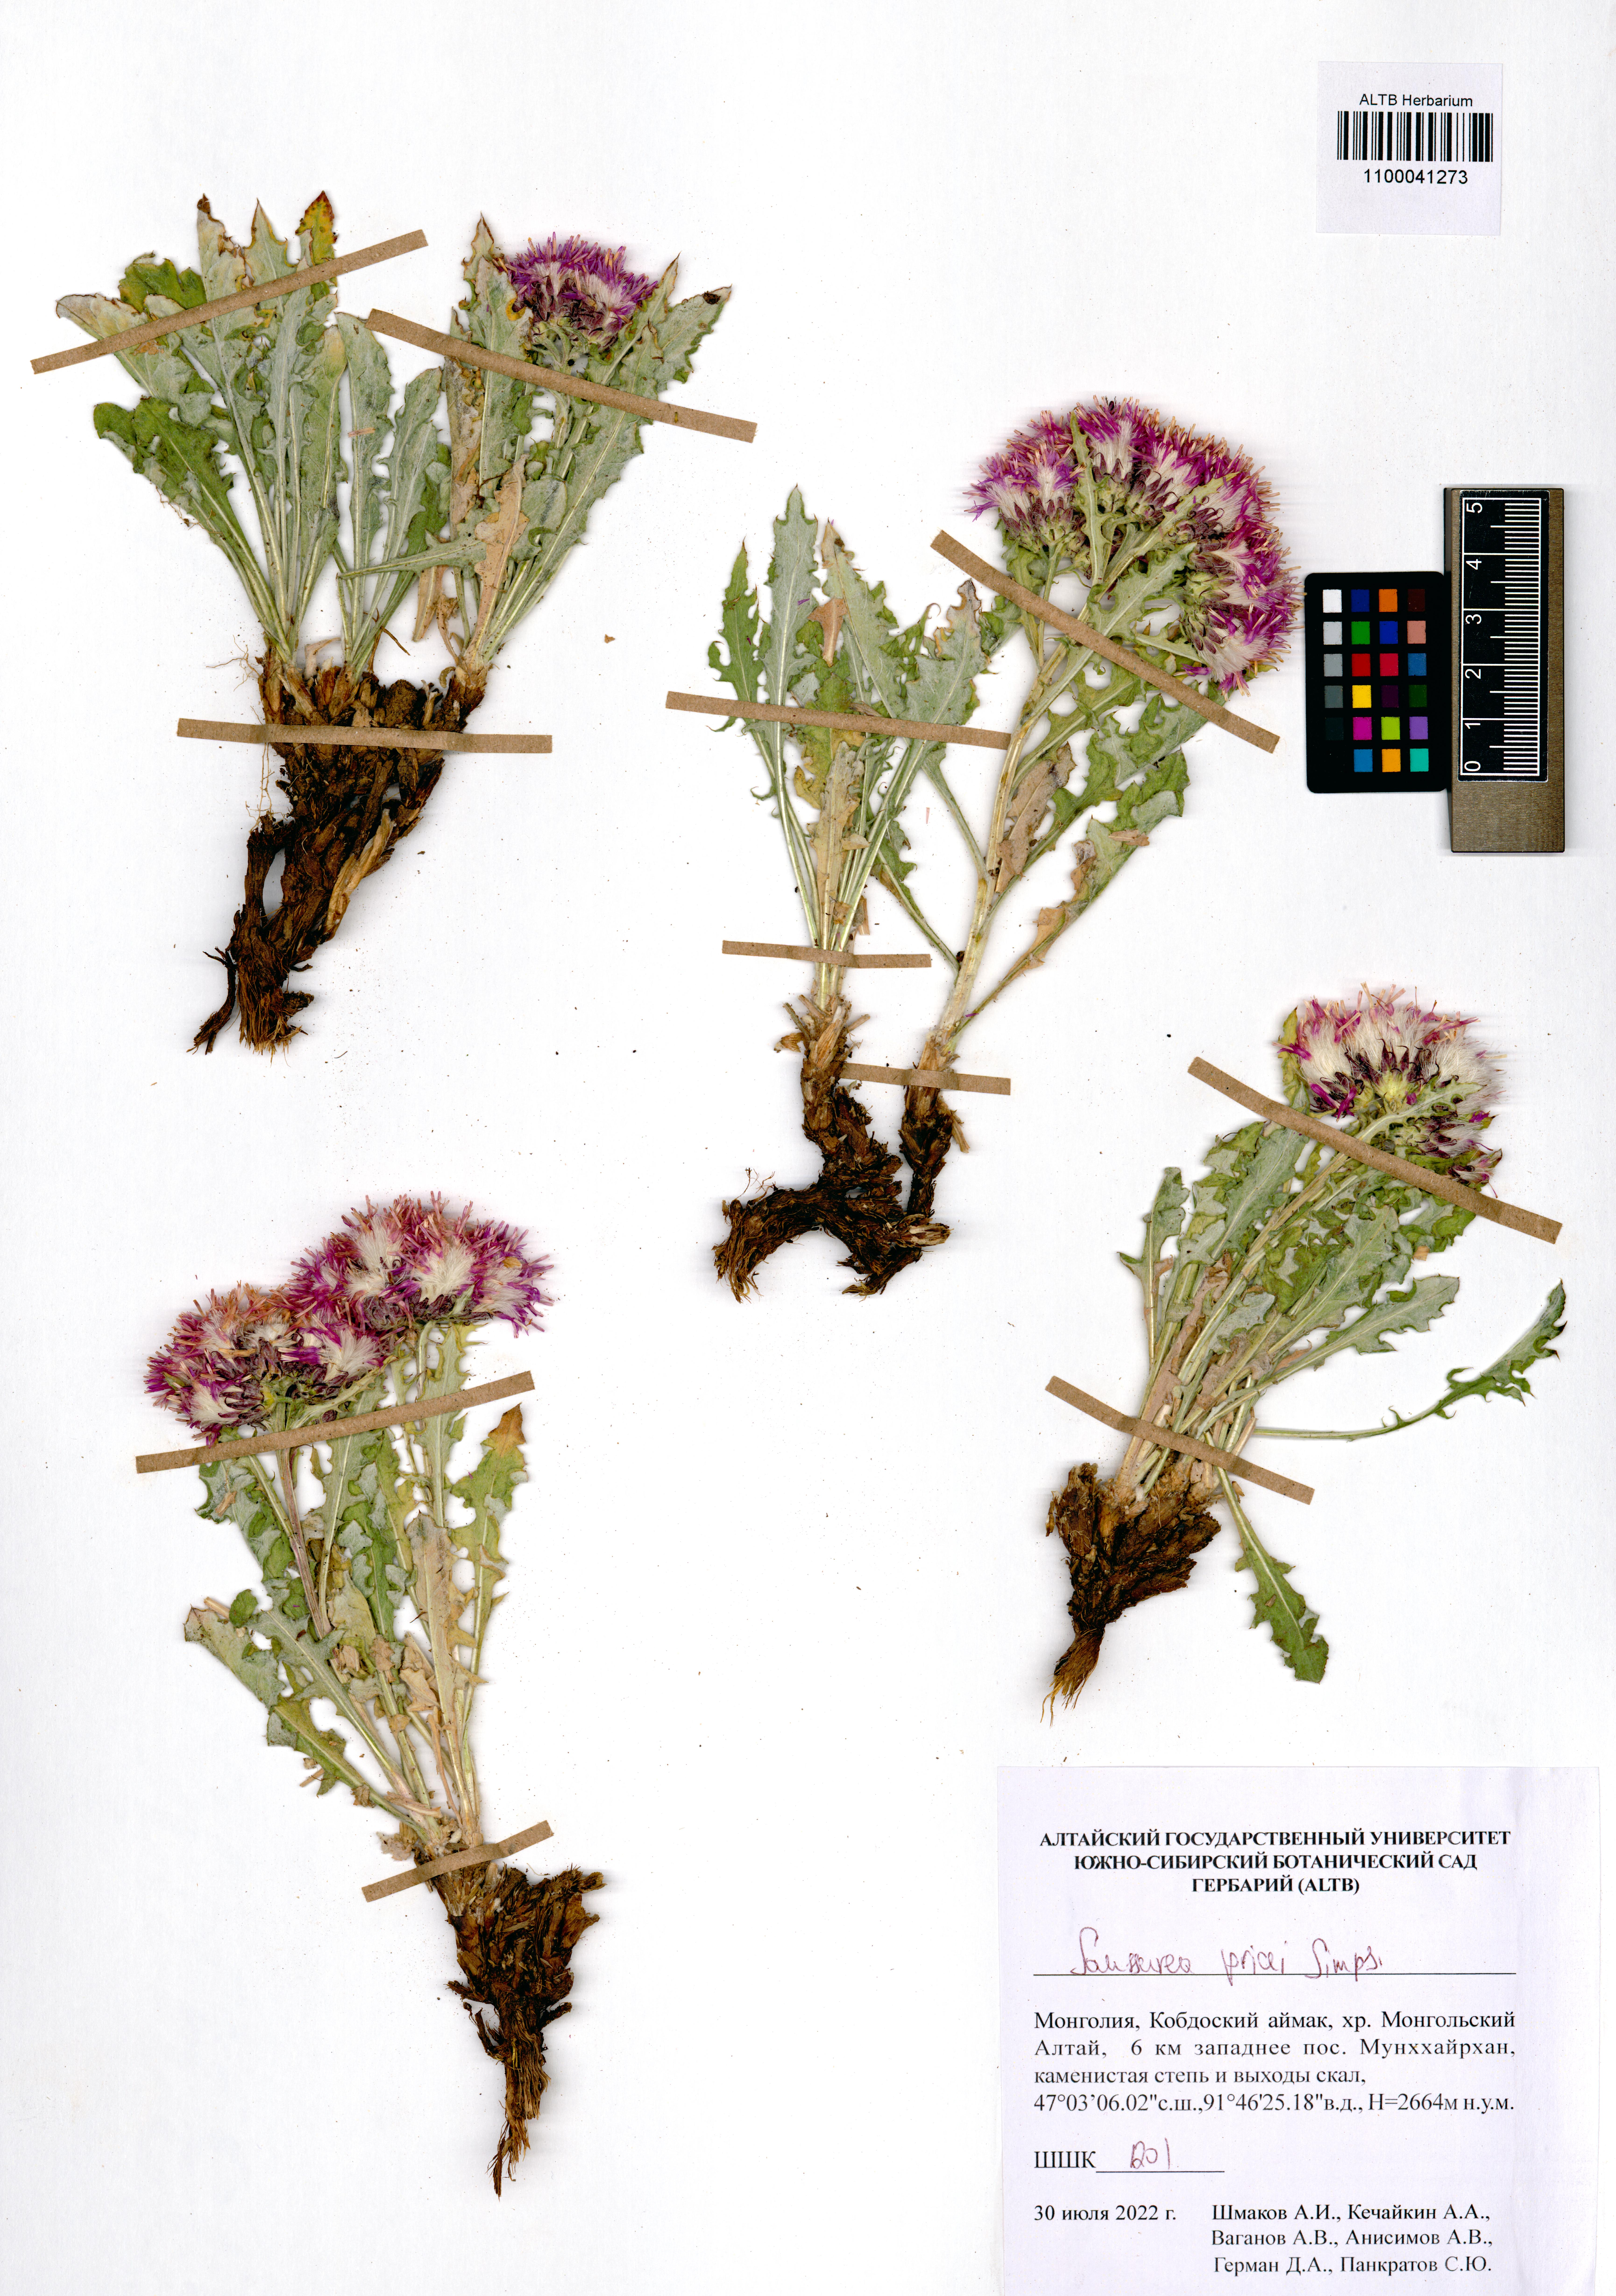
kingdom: Plantae
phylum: Tracheophyta
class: Magnoliopsida
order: Asterales
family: Asteraceae
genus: Saussurea
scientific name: Saussurea pricei
